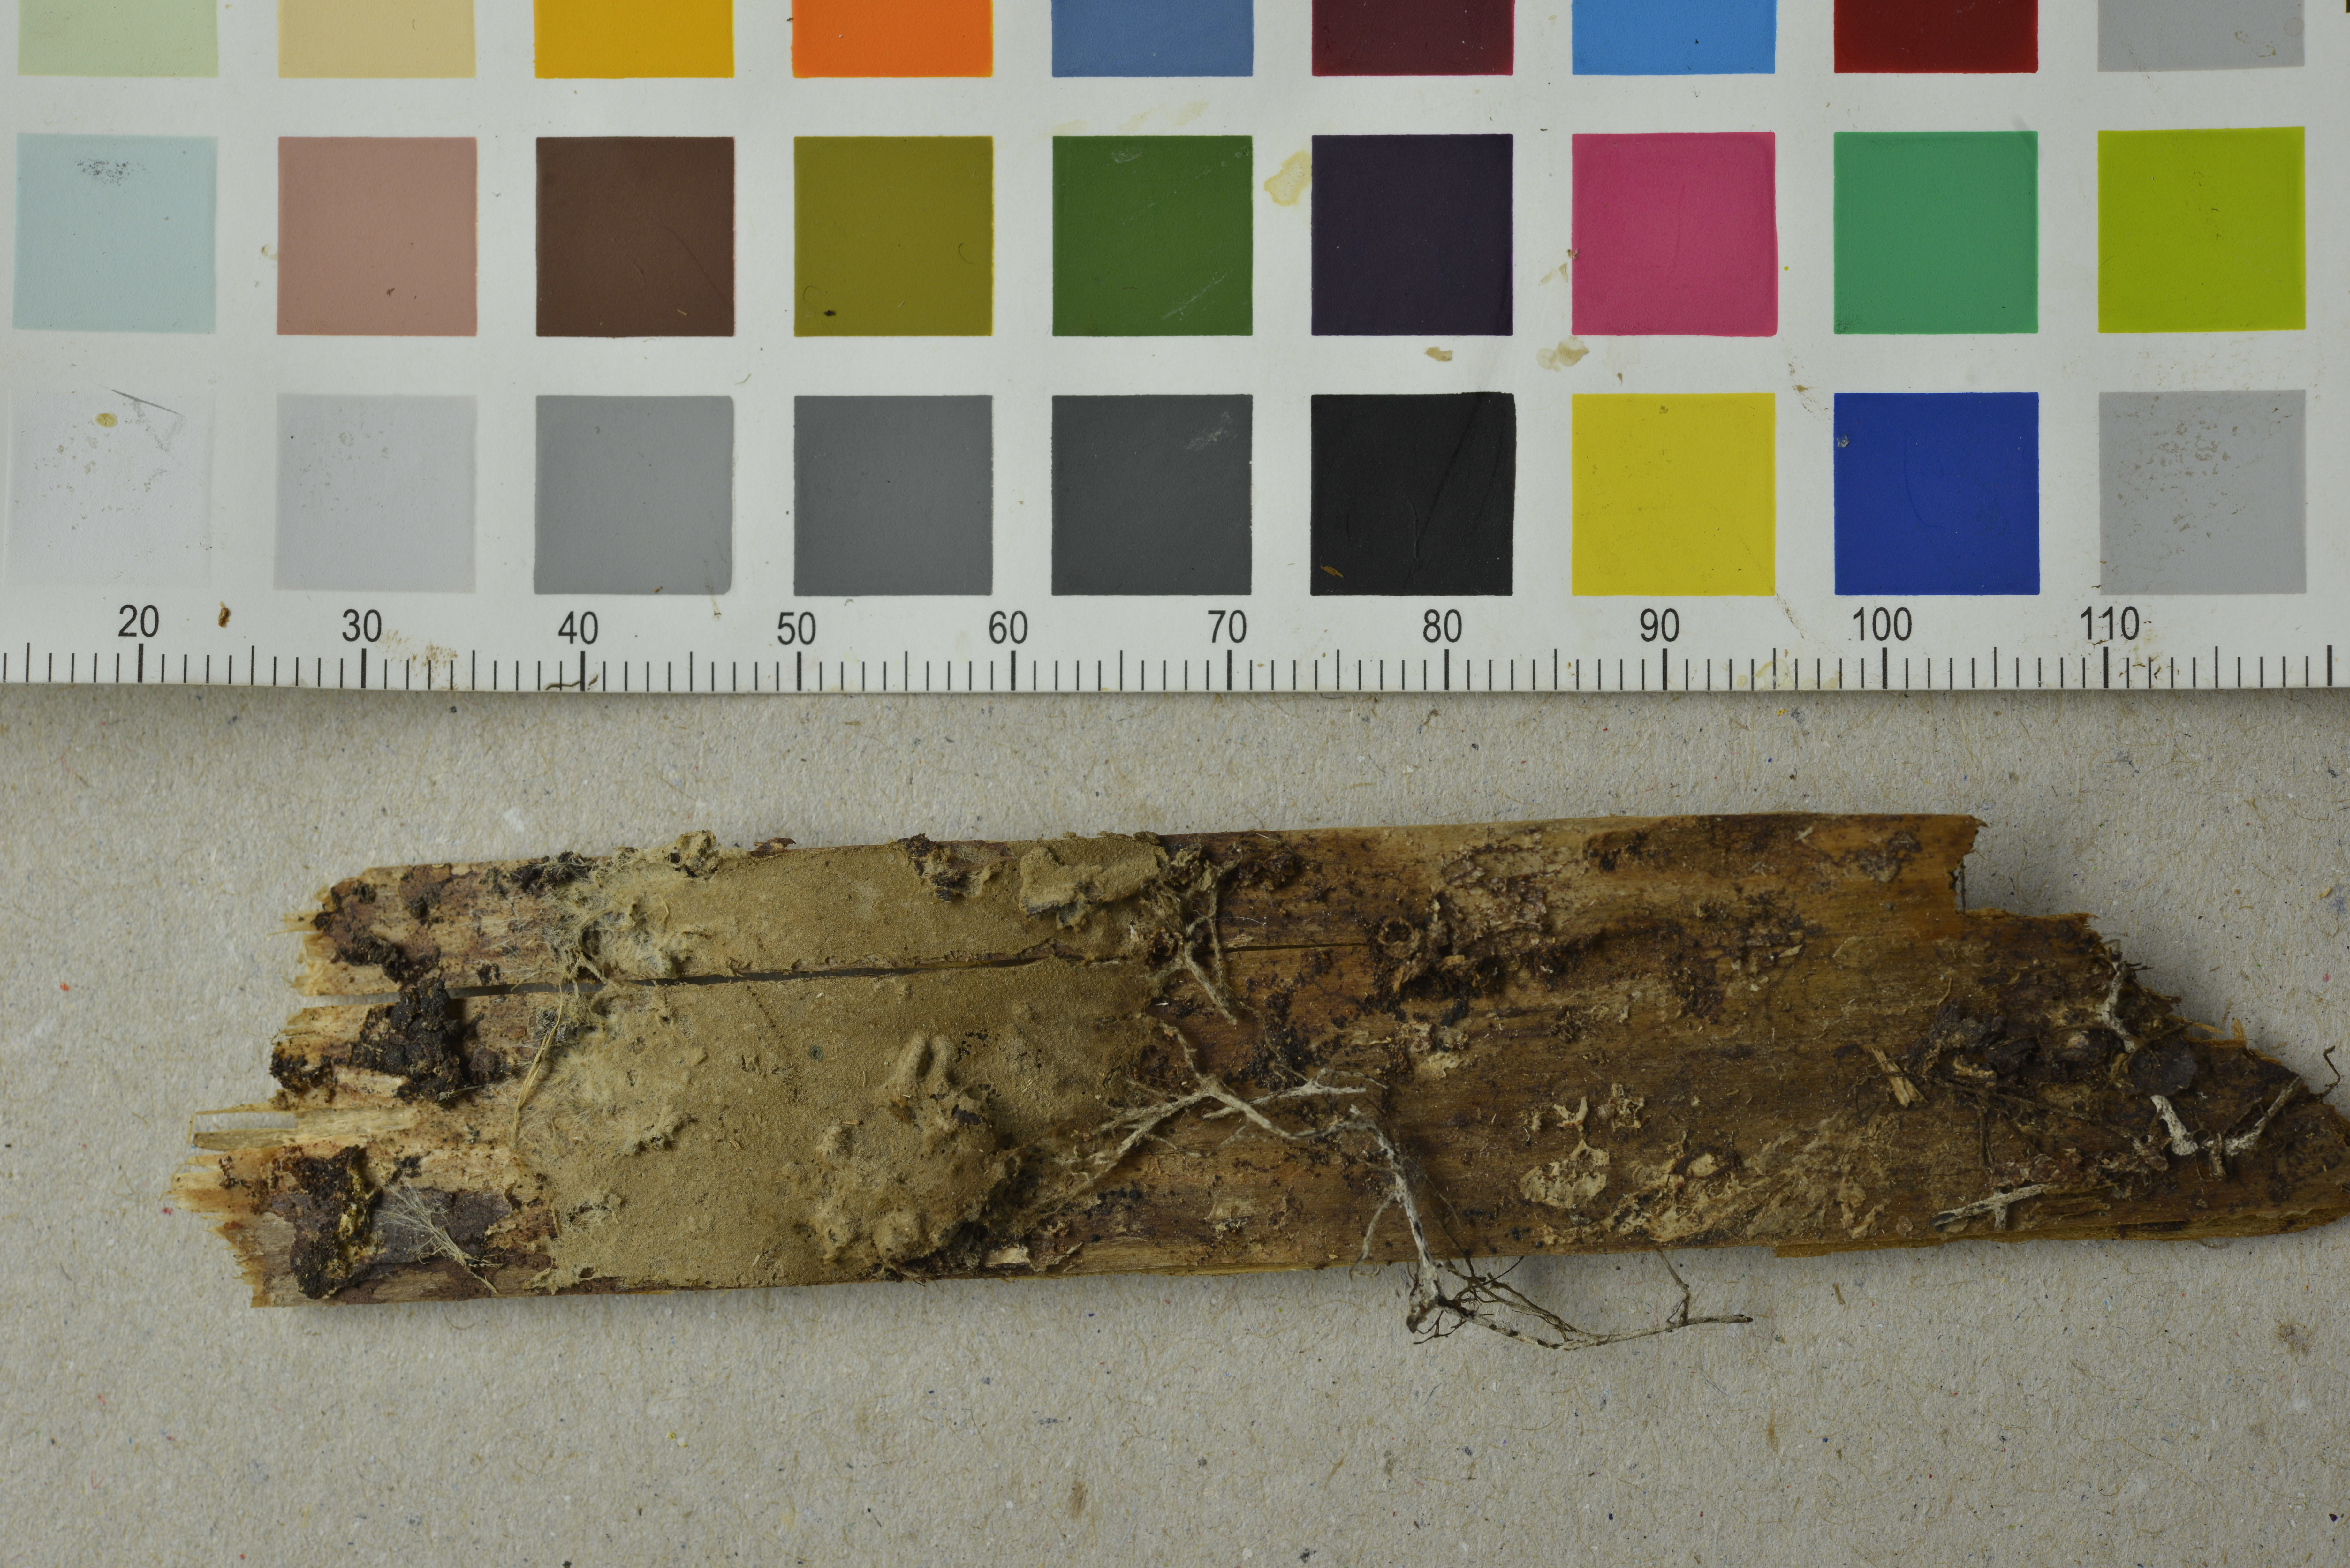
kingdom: Fungi
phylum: Basidiomycota
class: Agaricomycetes
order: Boletales
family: Coniophoraceae
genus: Coniophora
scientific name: Coniophora olivacea
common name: Olive duster
